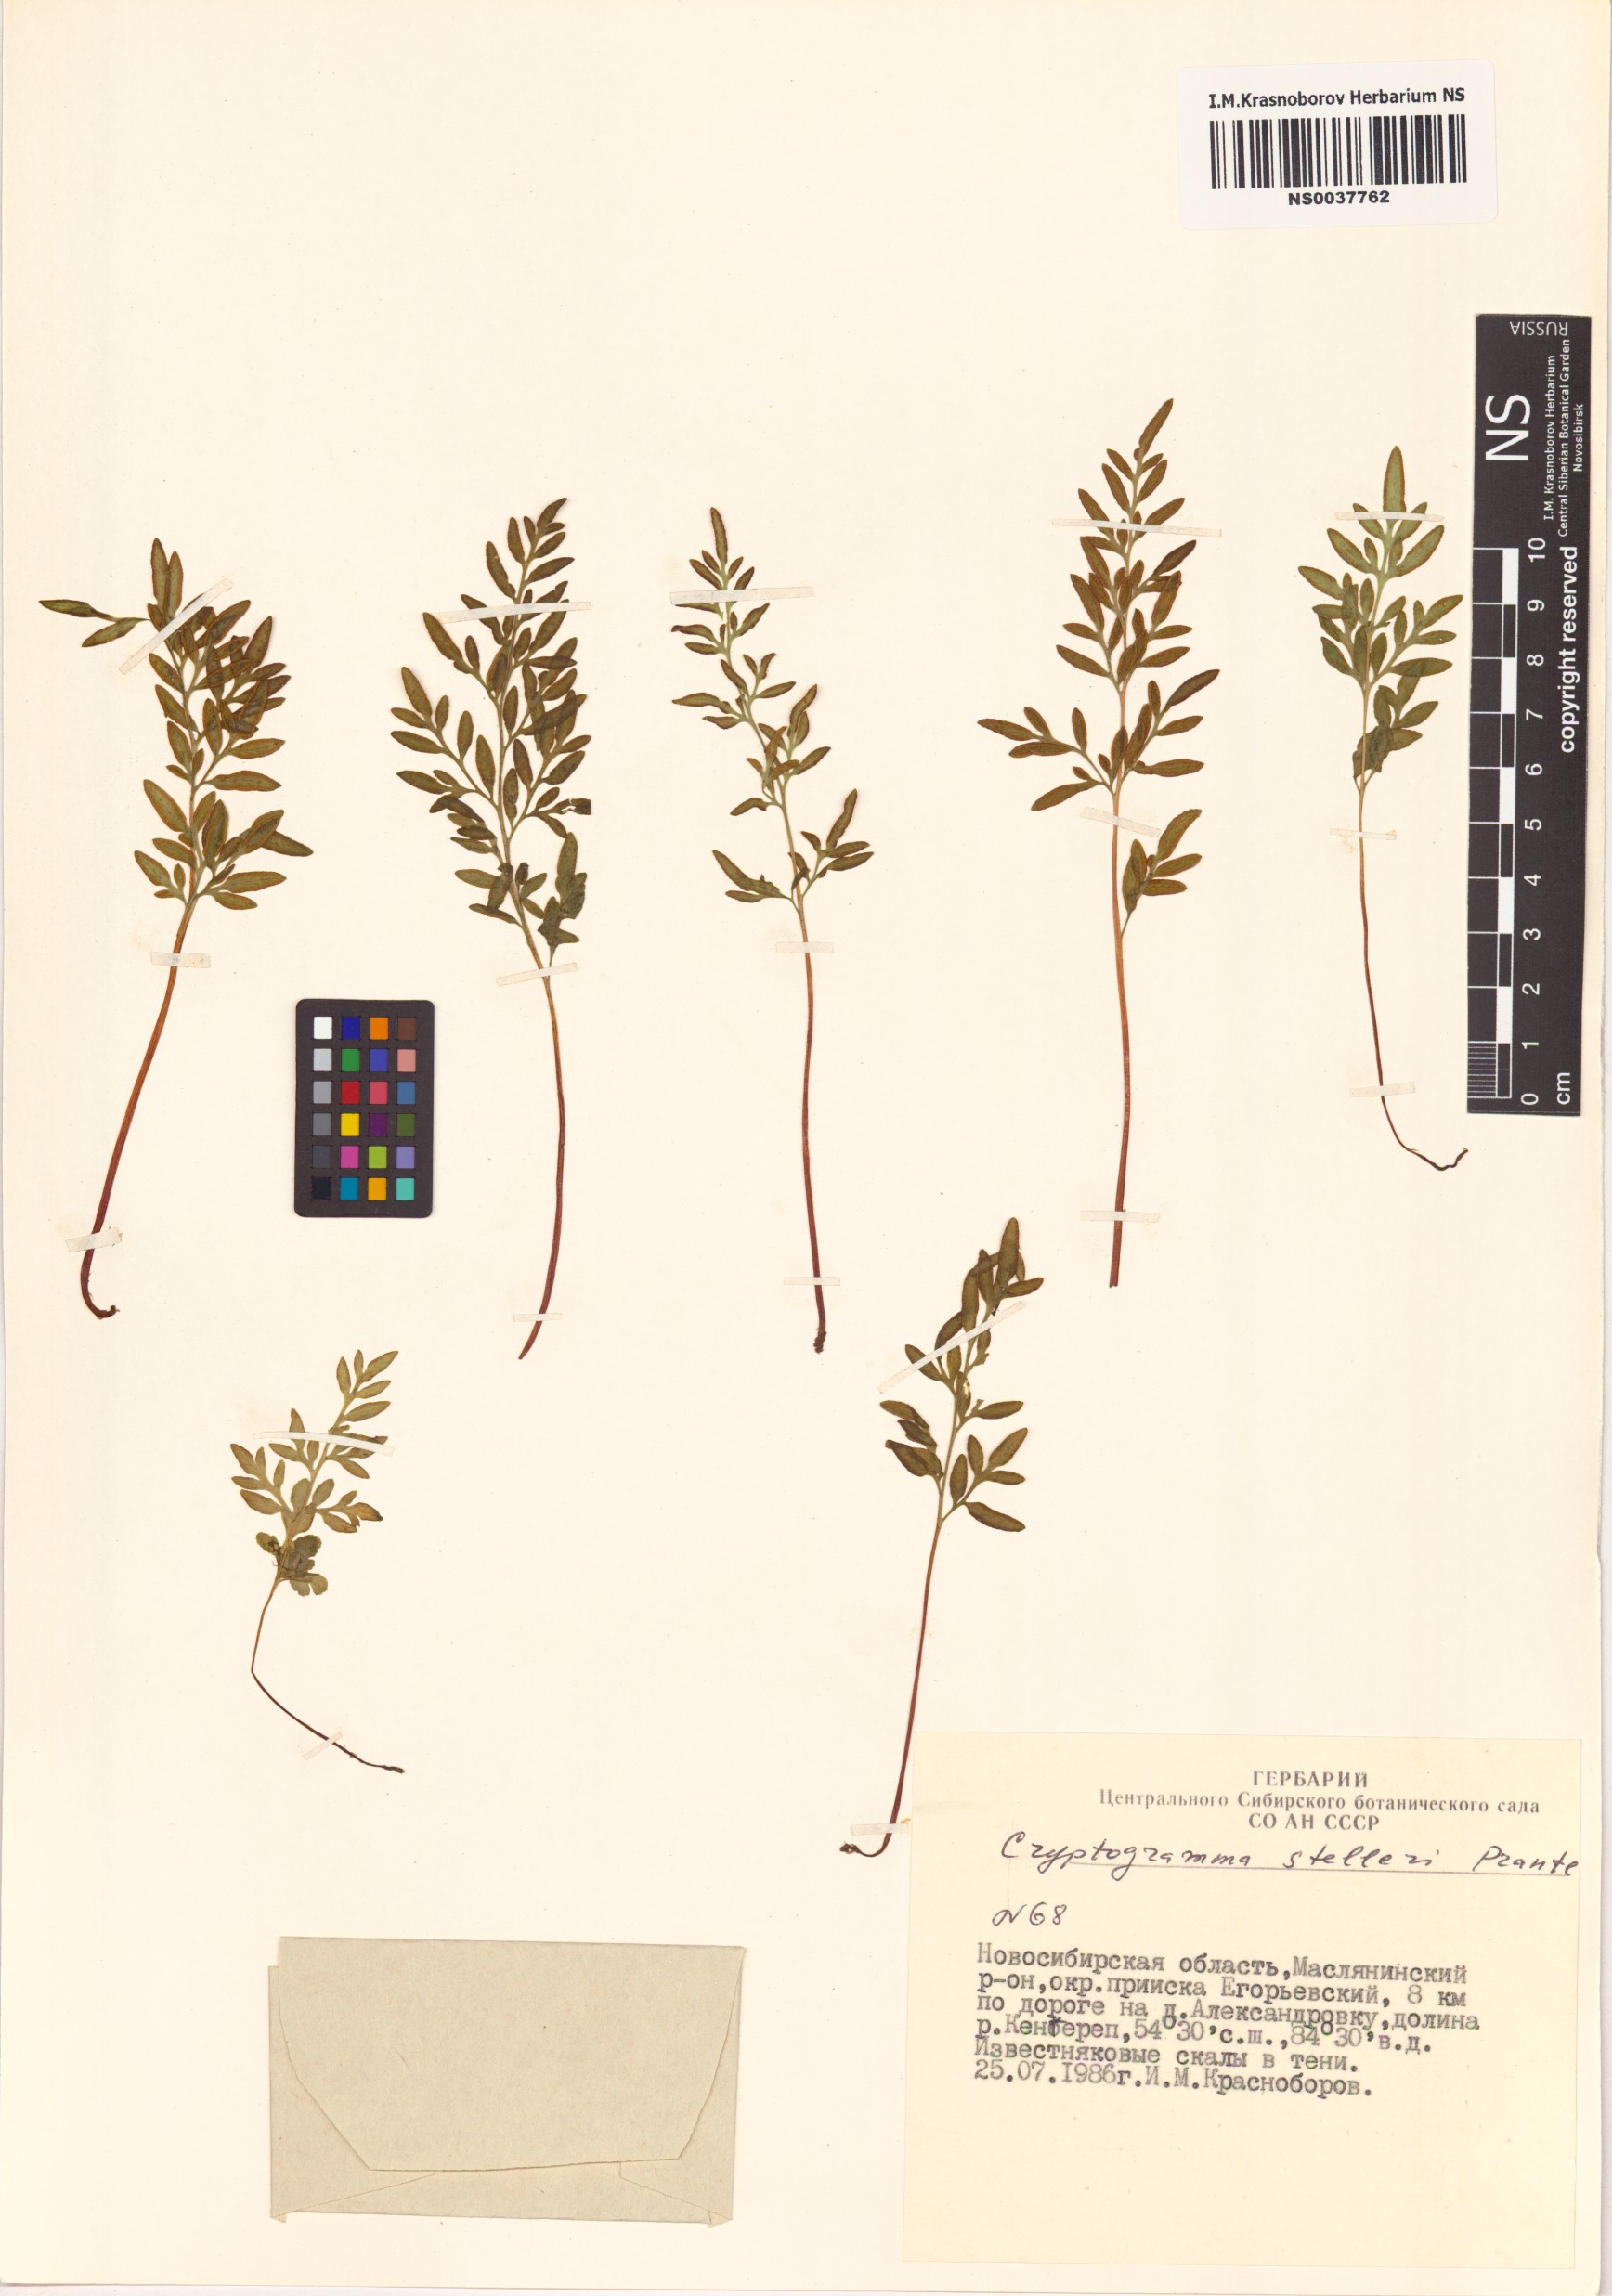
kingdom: Plantae
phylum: Tracheophyta
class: Polypodiopsida
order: Polypodiales
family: Pteridaceae
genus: Cryptogramma
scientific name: Cryptogramma stelleri
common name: Cliff-brake
